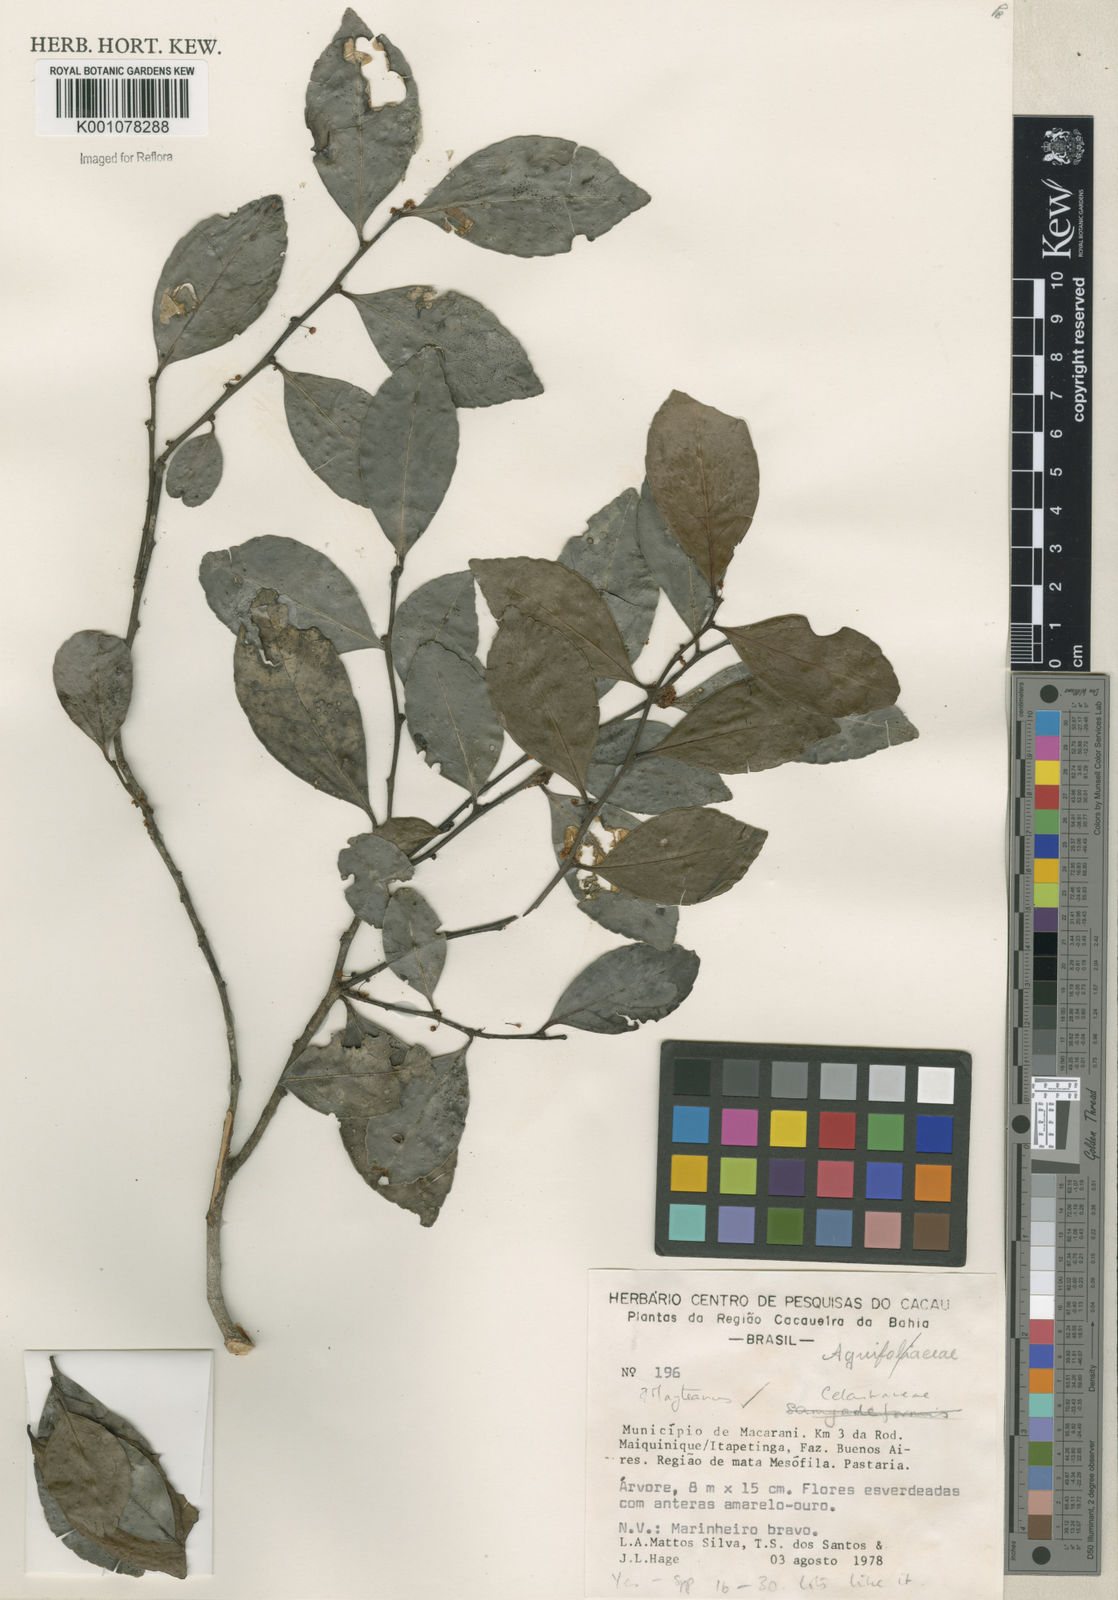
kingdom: Plantae
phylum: Tracheophyta
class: Magnoliopsida
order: Celastrales
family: Celastraceae
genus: Maytenus
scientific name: Maytenus
